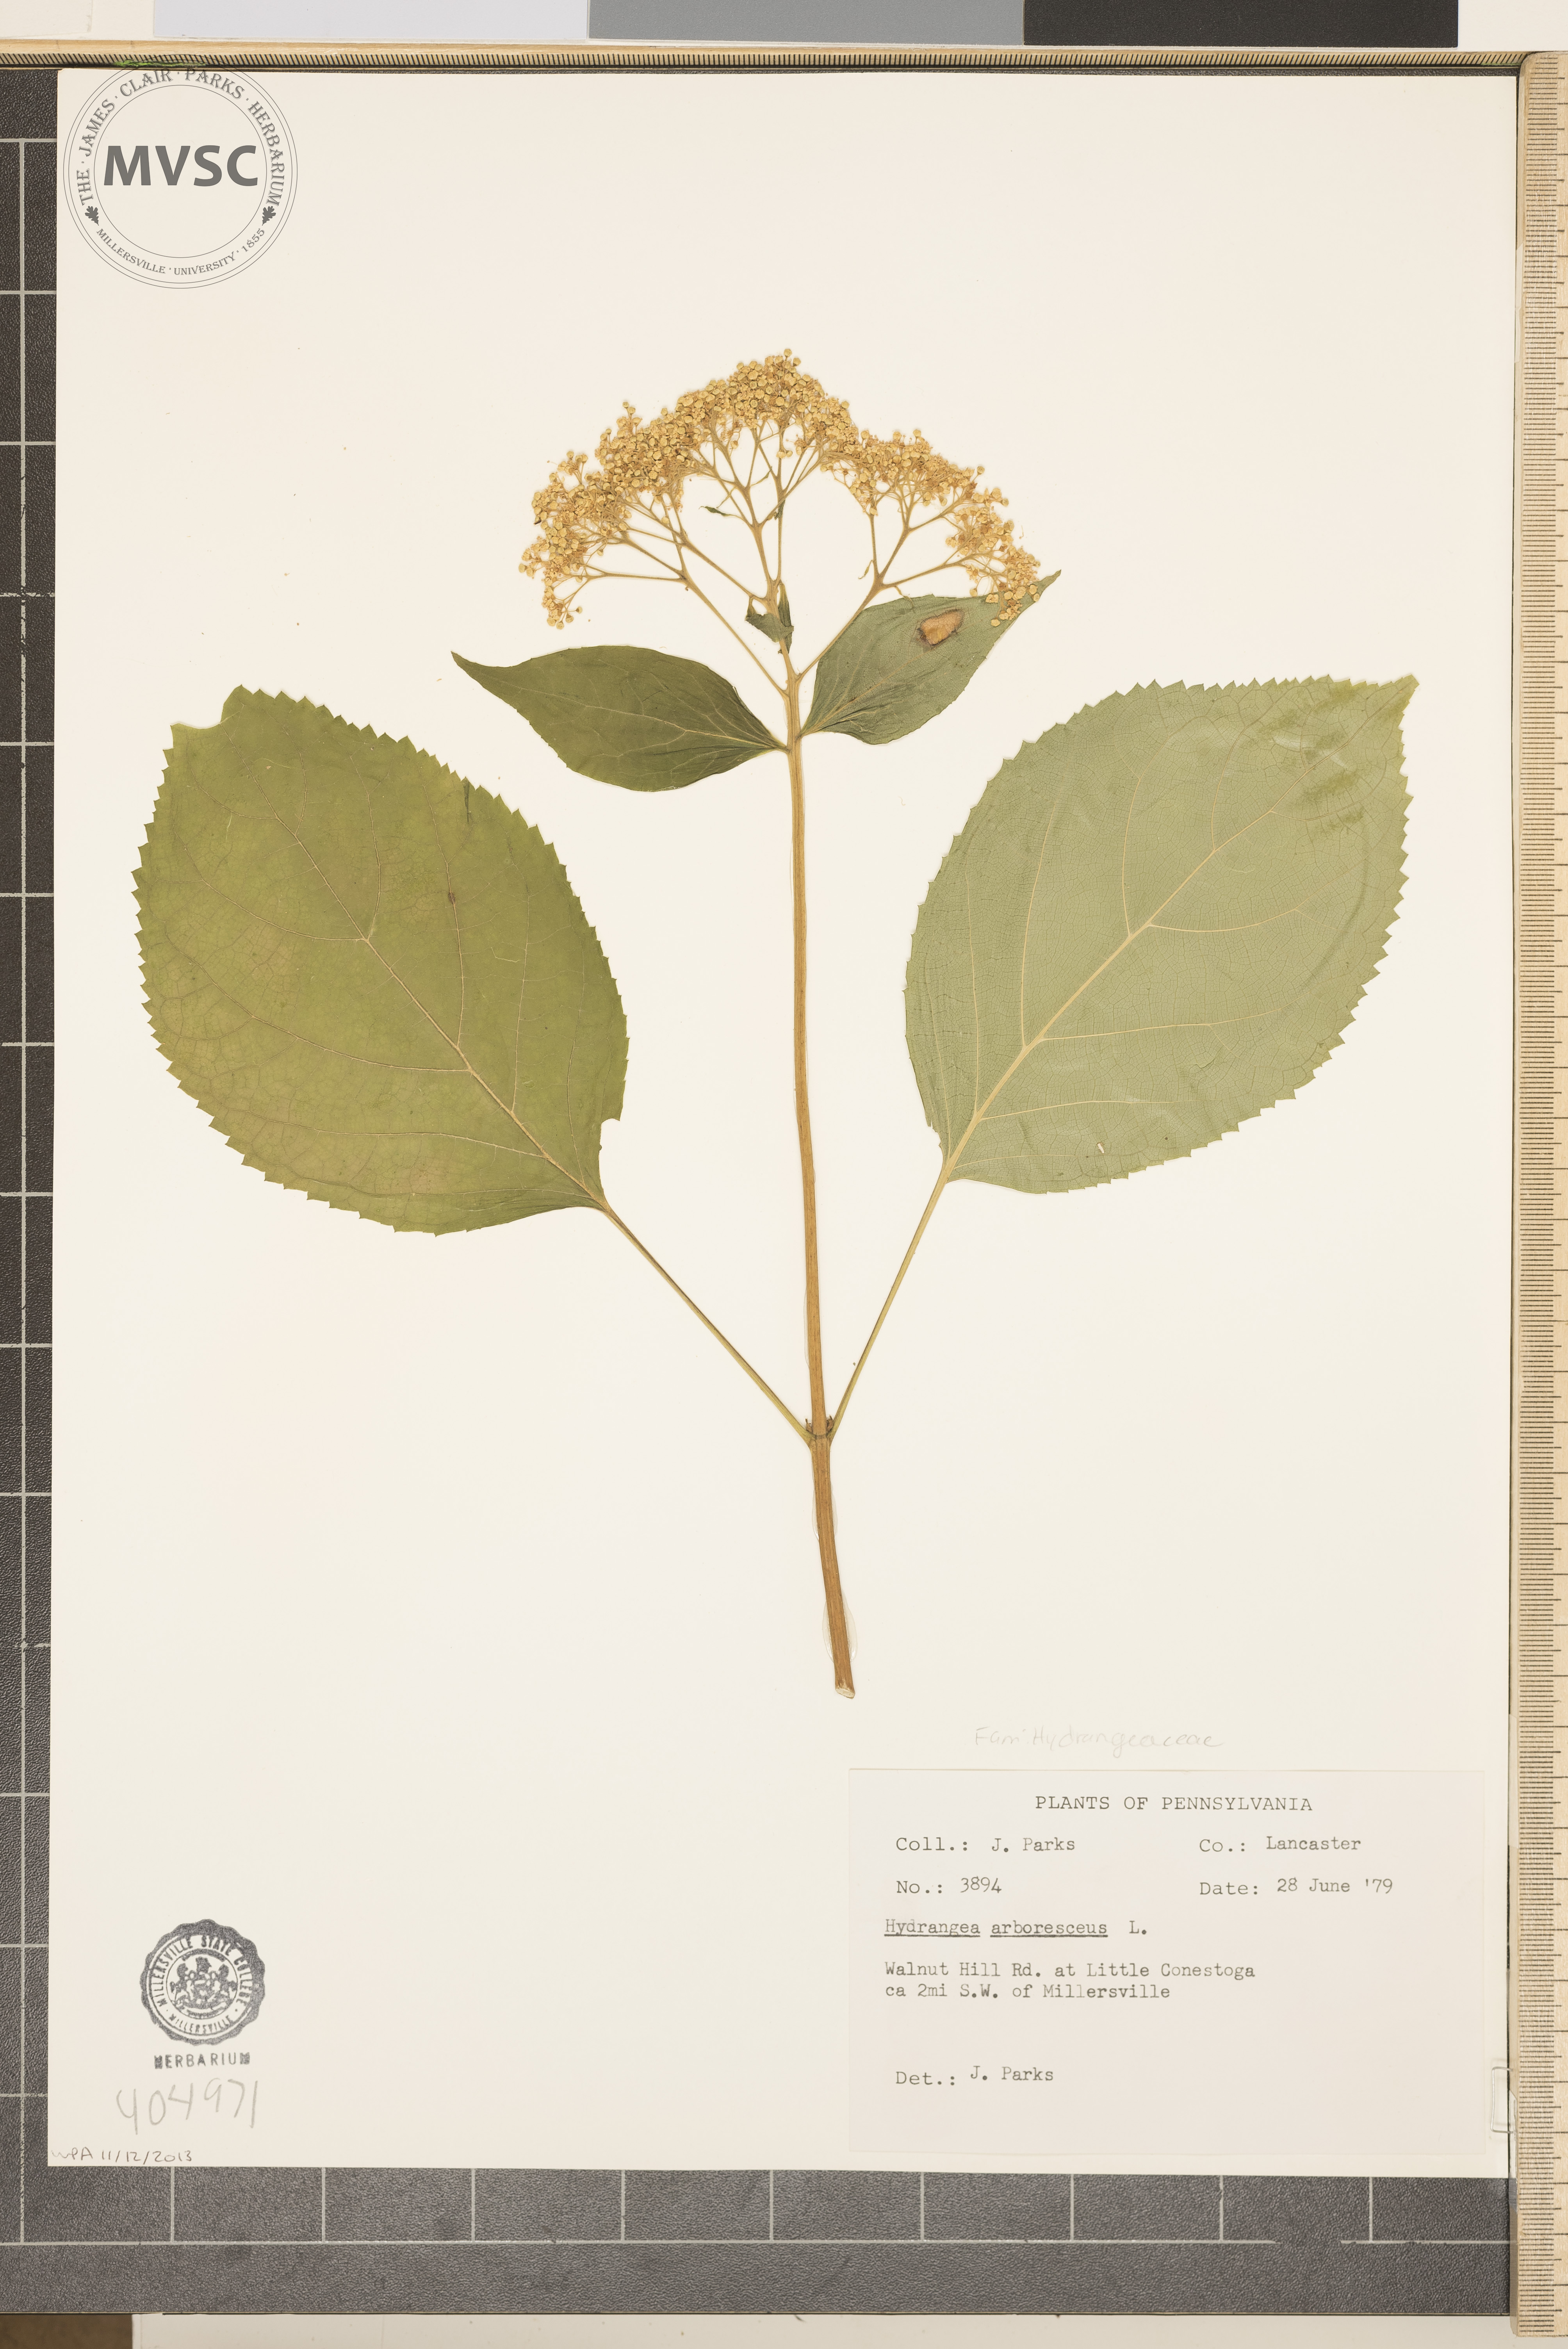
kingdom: Plantae
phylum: Tracheophyta
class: Magnoliopsida
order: Cornales
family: Hydrangeaceae
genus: Hydrangea
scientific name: Hydrangea arborescens
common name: Sevenbark
